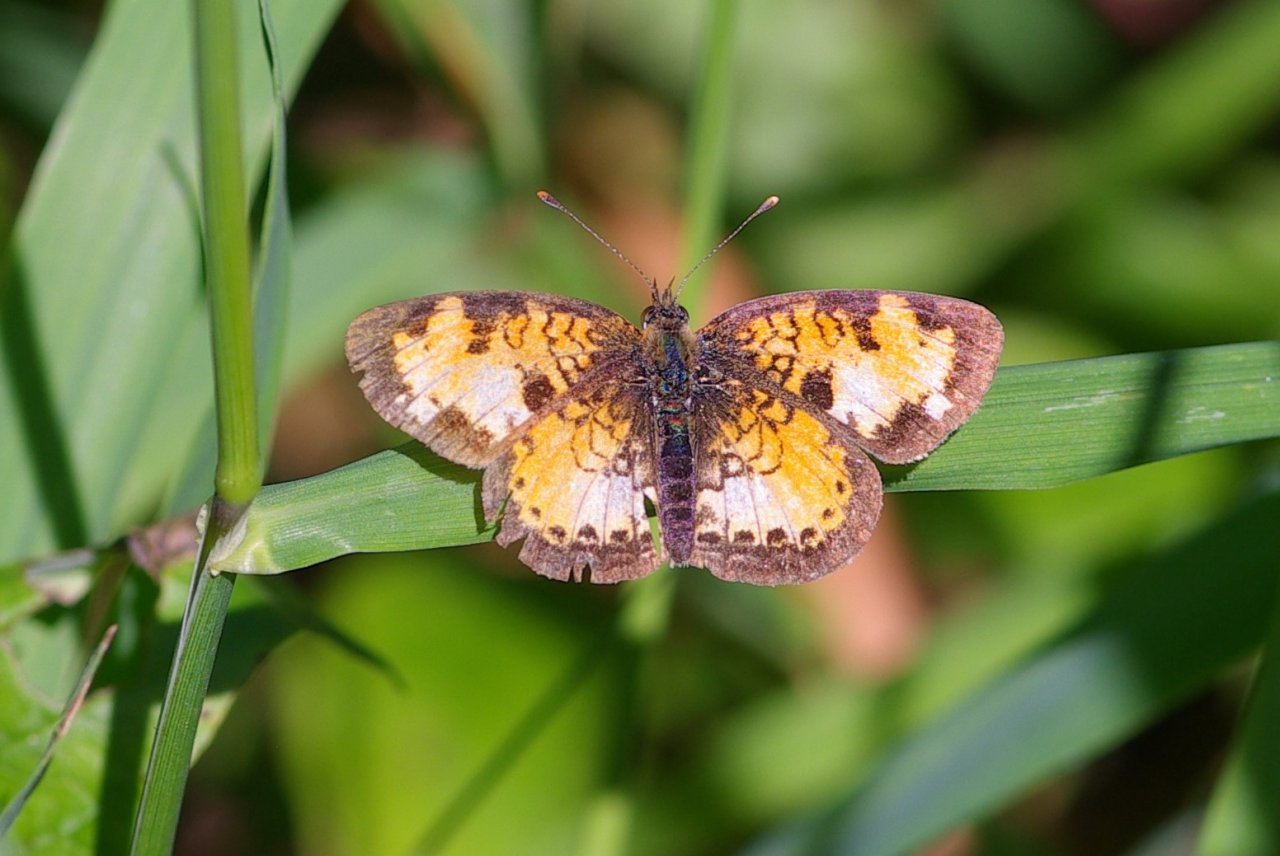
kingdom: Animalia
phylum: Arthropoda
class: Insecta
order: Lepidoptera
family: Nymphalidae
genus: Phyciodes
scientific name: Phyciodes tharos
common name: Northern Crescent
